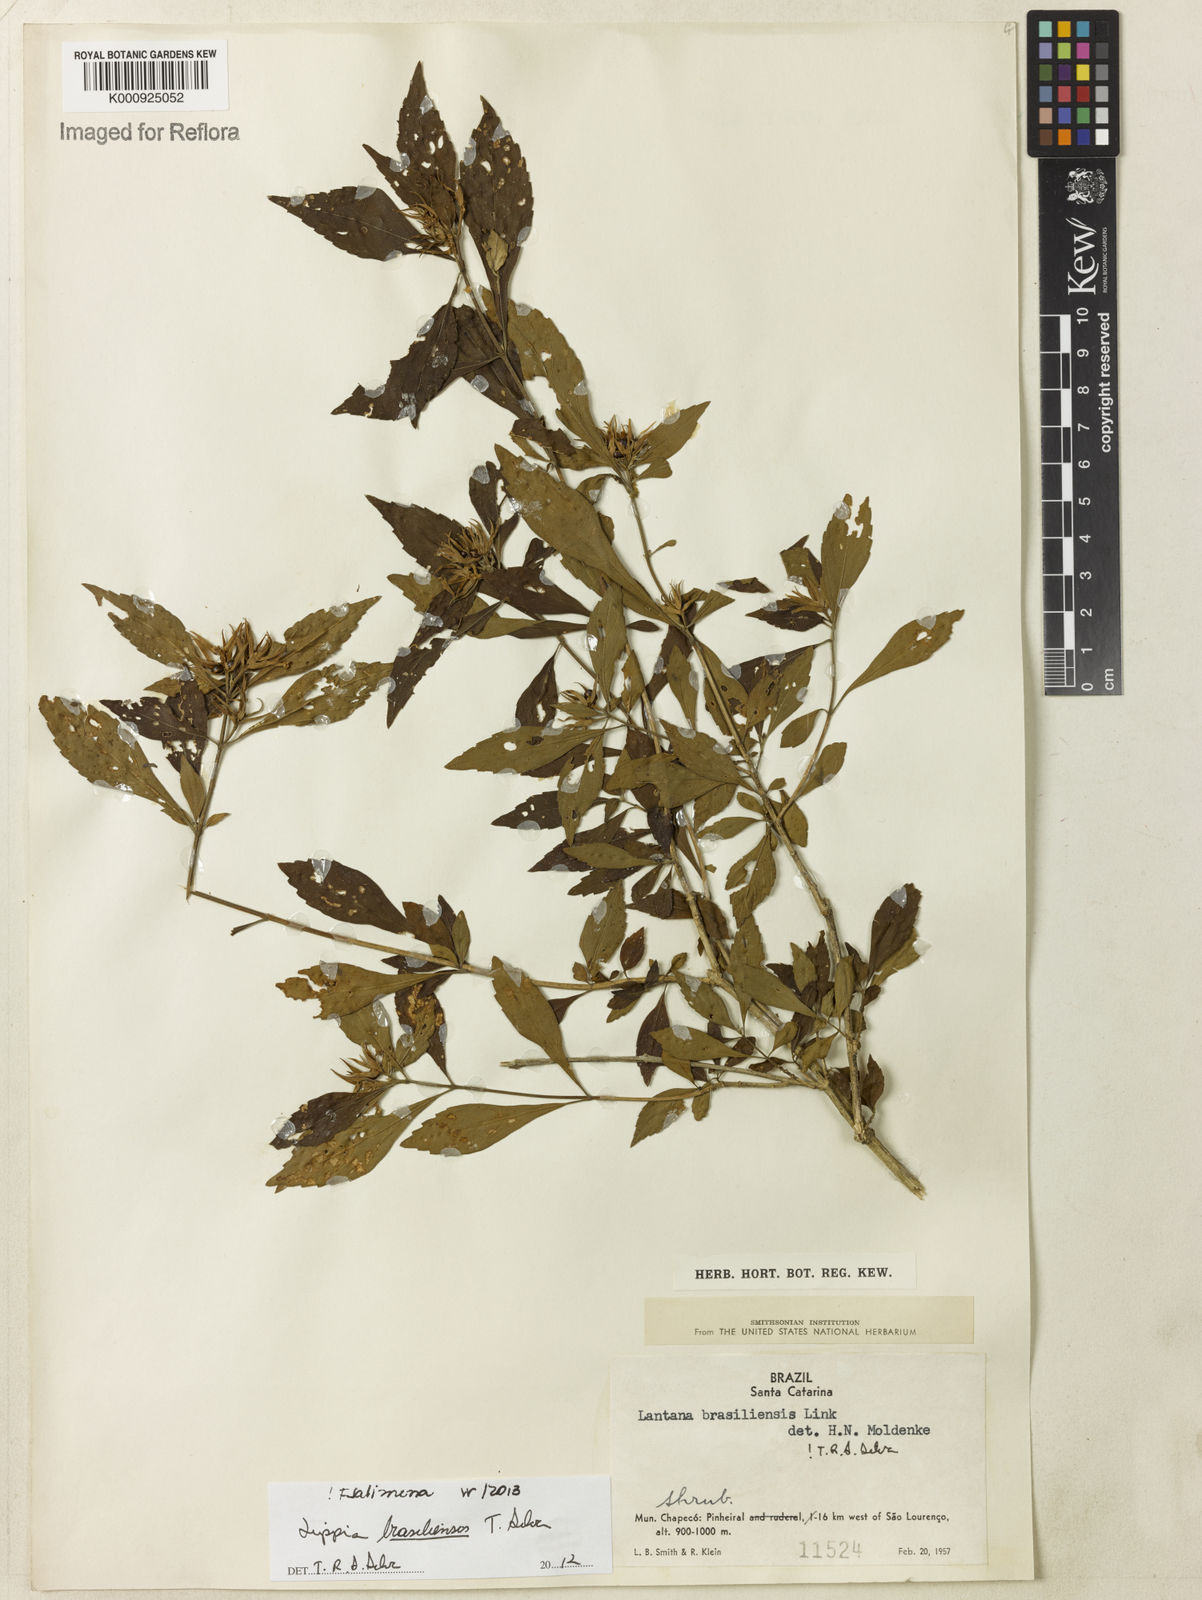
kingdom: Plantae
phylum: Tracheophyta
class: Magnoliopsida
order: Lamiales
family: Verbenaceae
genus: Lippia
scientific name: Lippia brasiliensis
